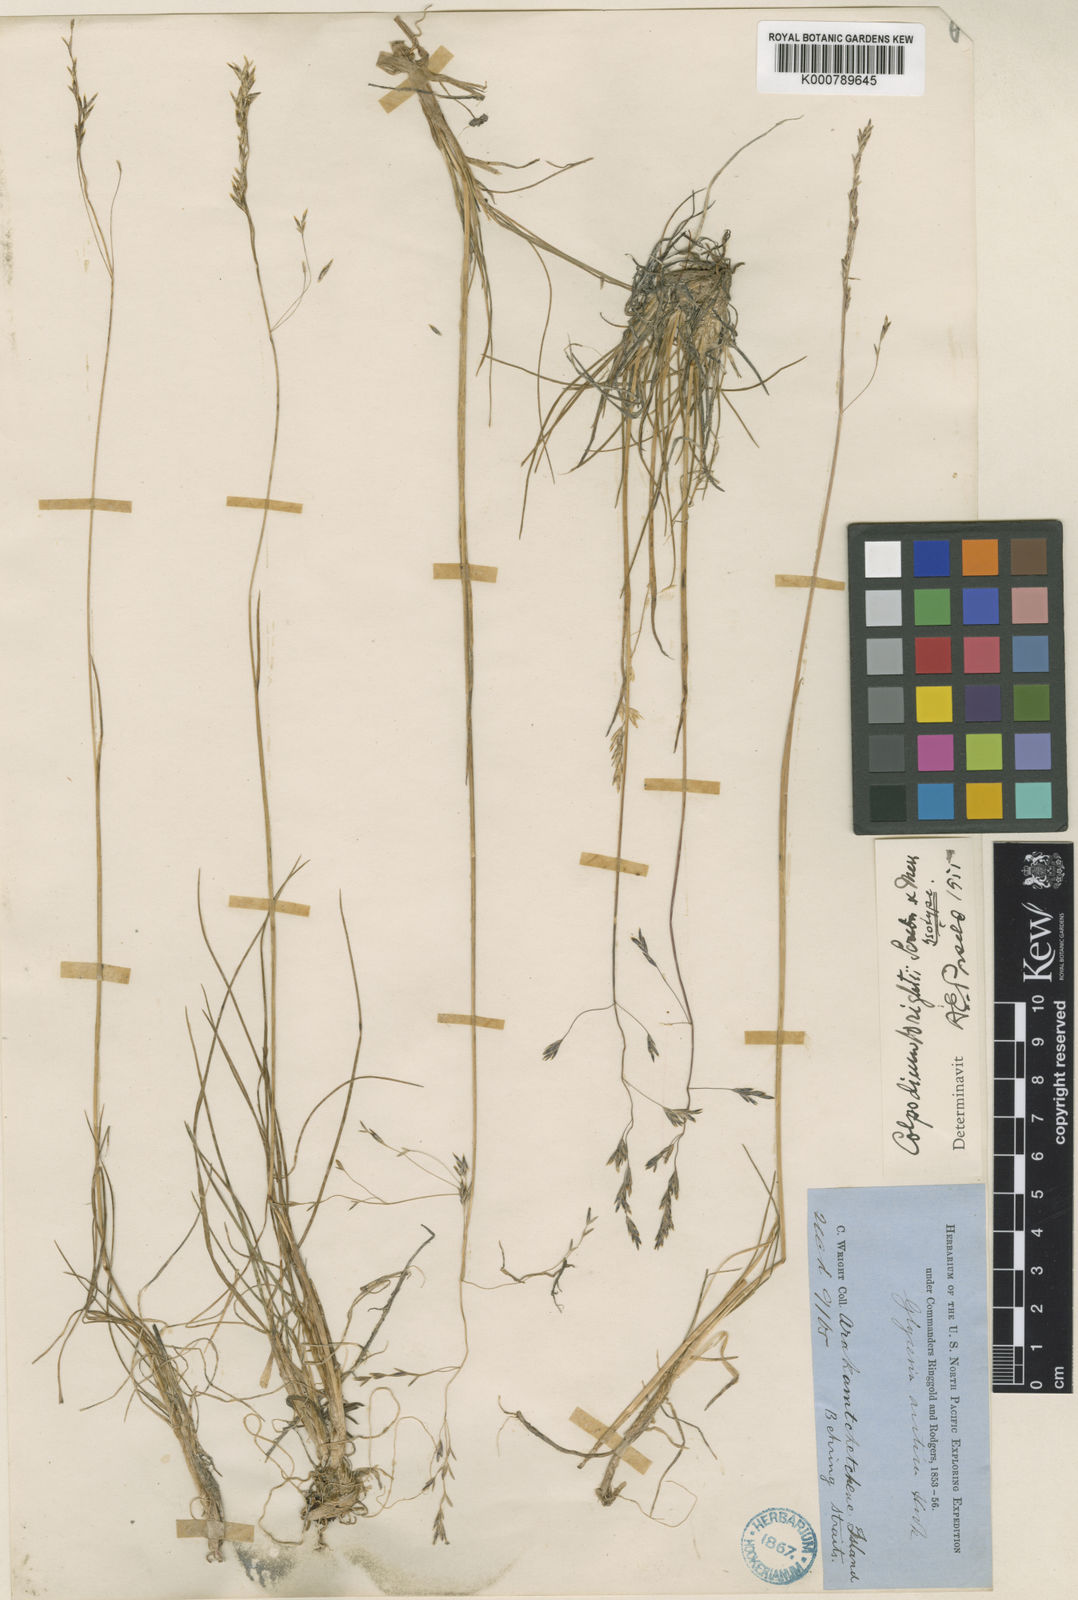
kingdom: Plantae
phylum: Tracheophyta
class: Liliopsida
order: Poales
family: Poaceae
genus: Puccinellia
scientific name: Puccinellia wrightii
